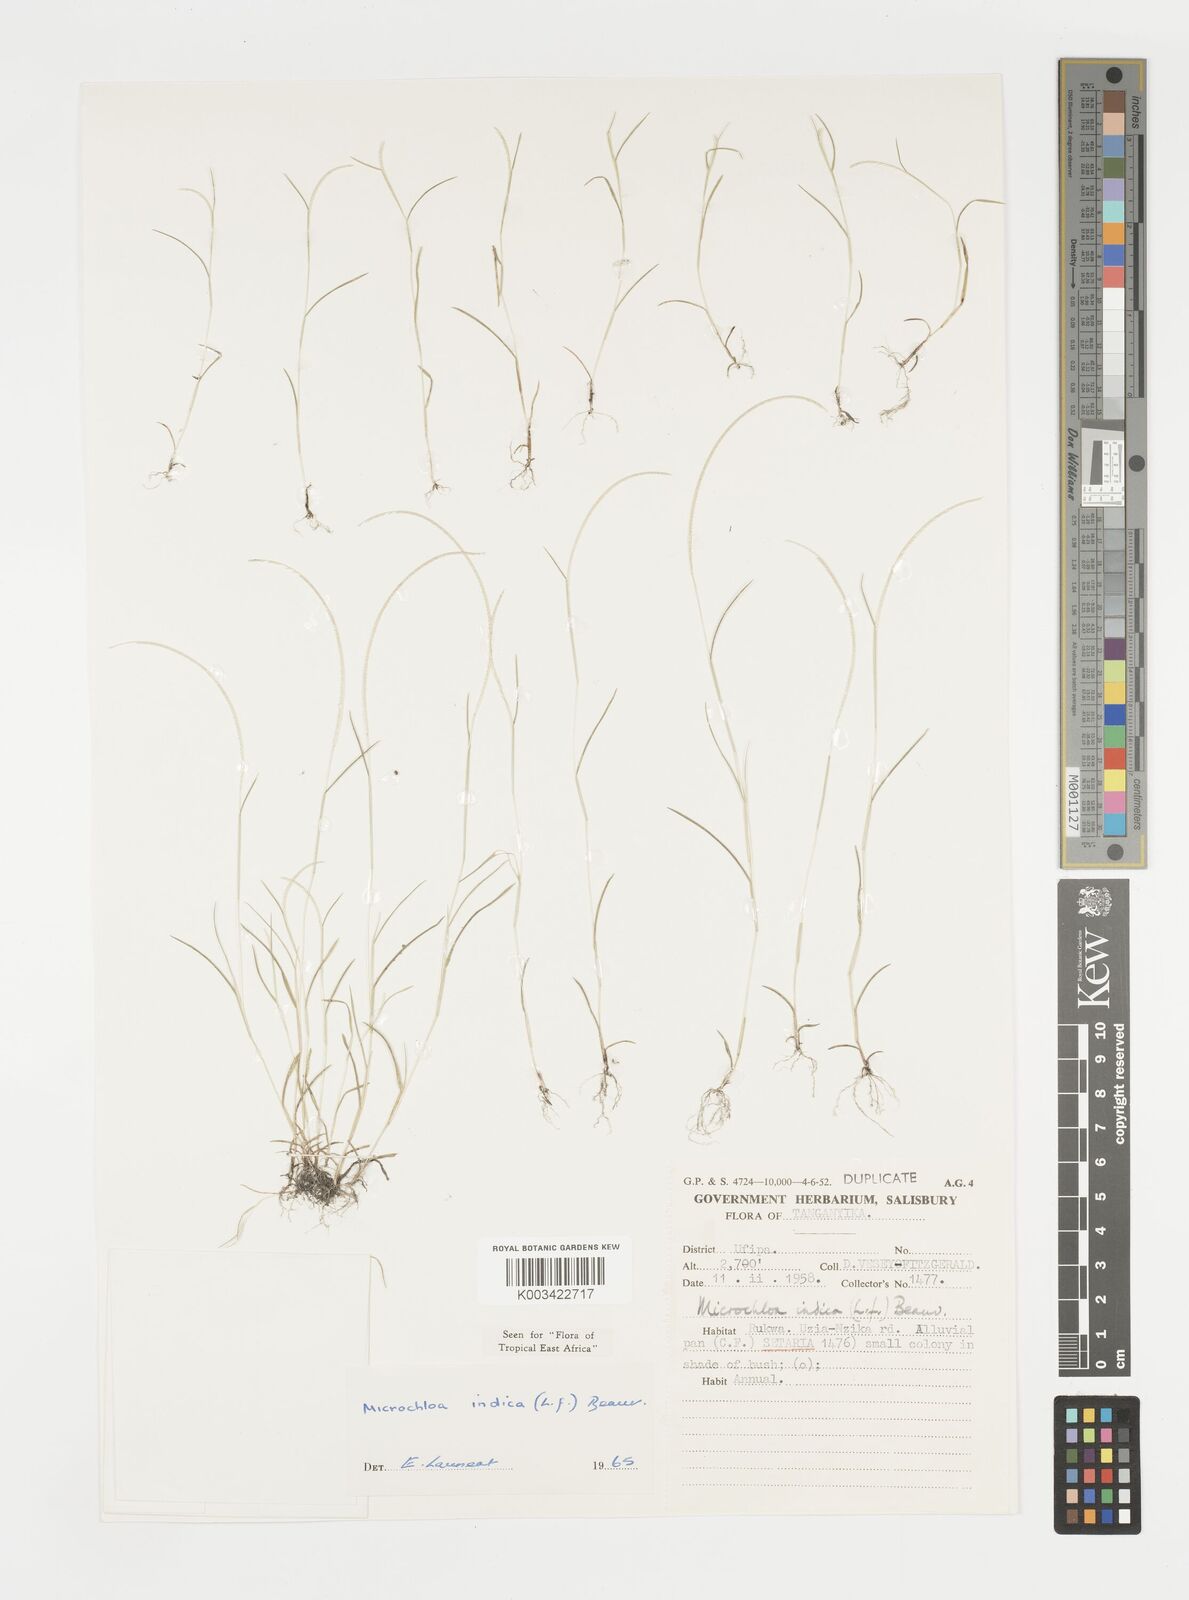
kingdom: Plantae
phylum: Tracheophyta
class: Liliopsida
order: Poales
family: Poaceae
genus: Microchloa
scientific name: Microchloa indica
